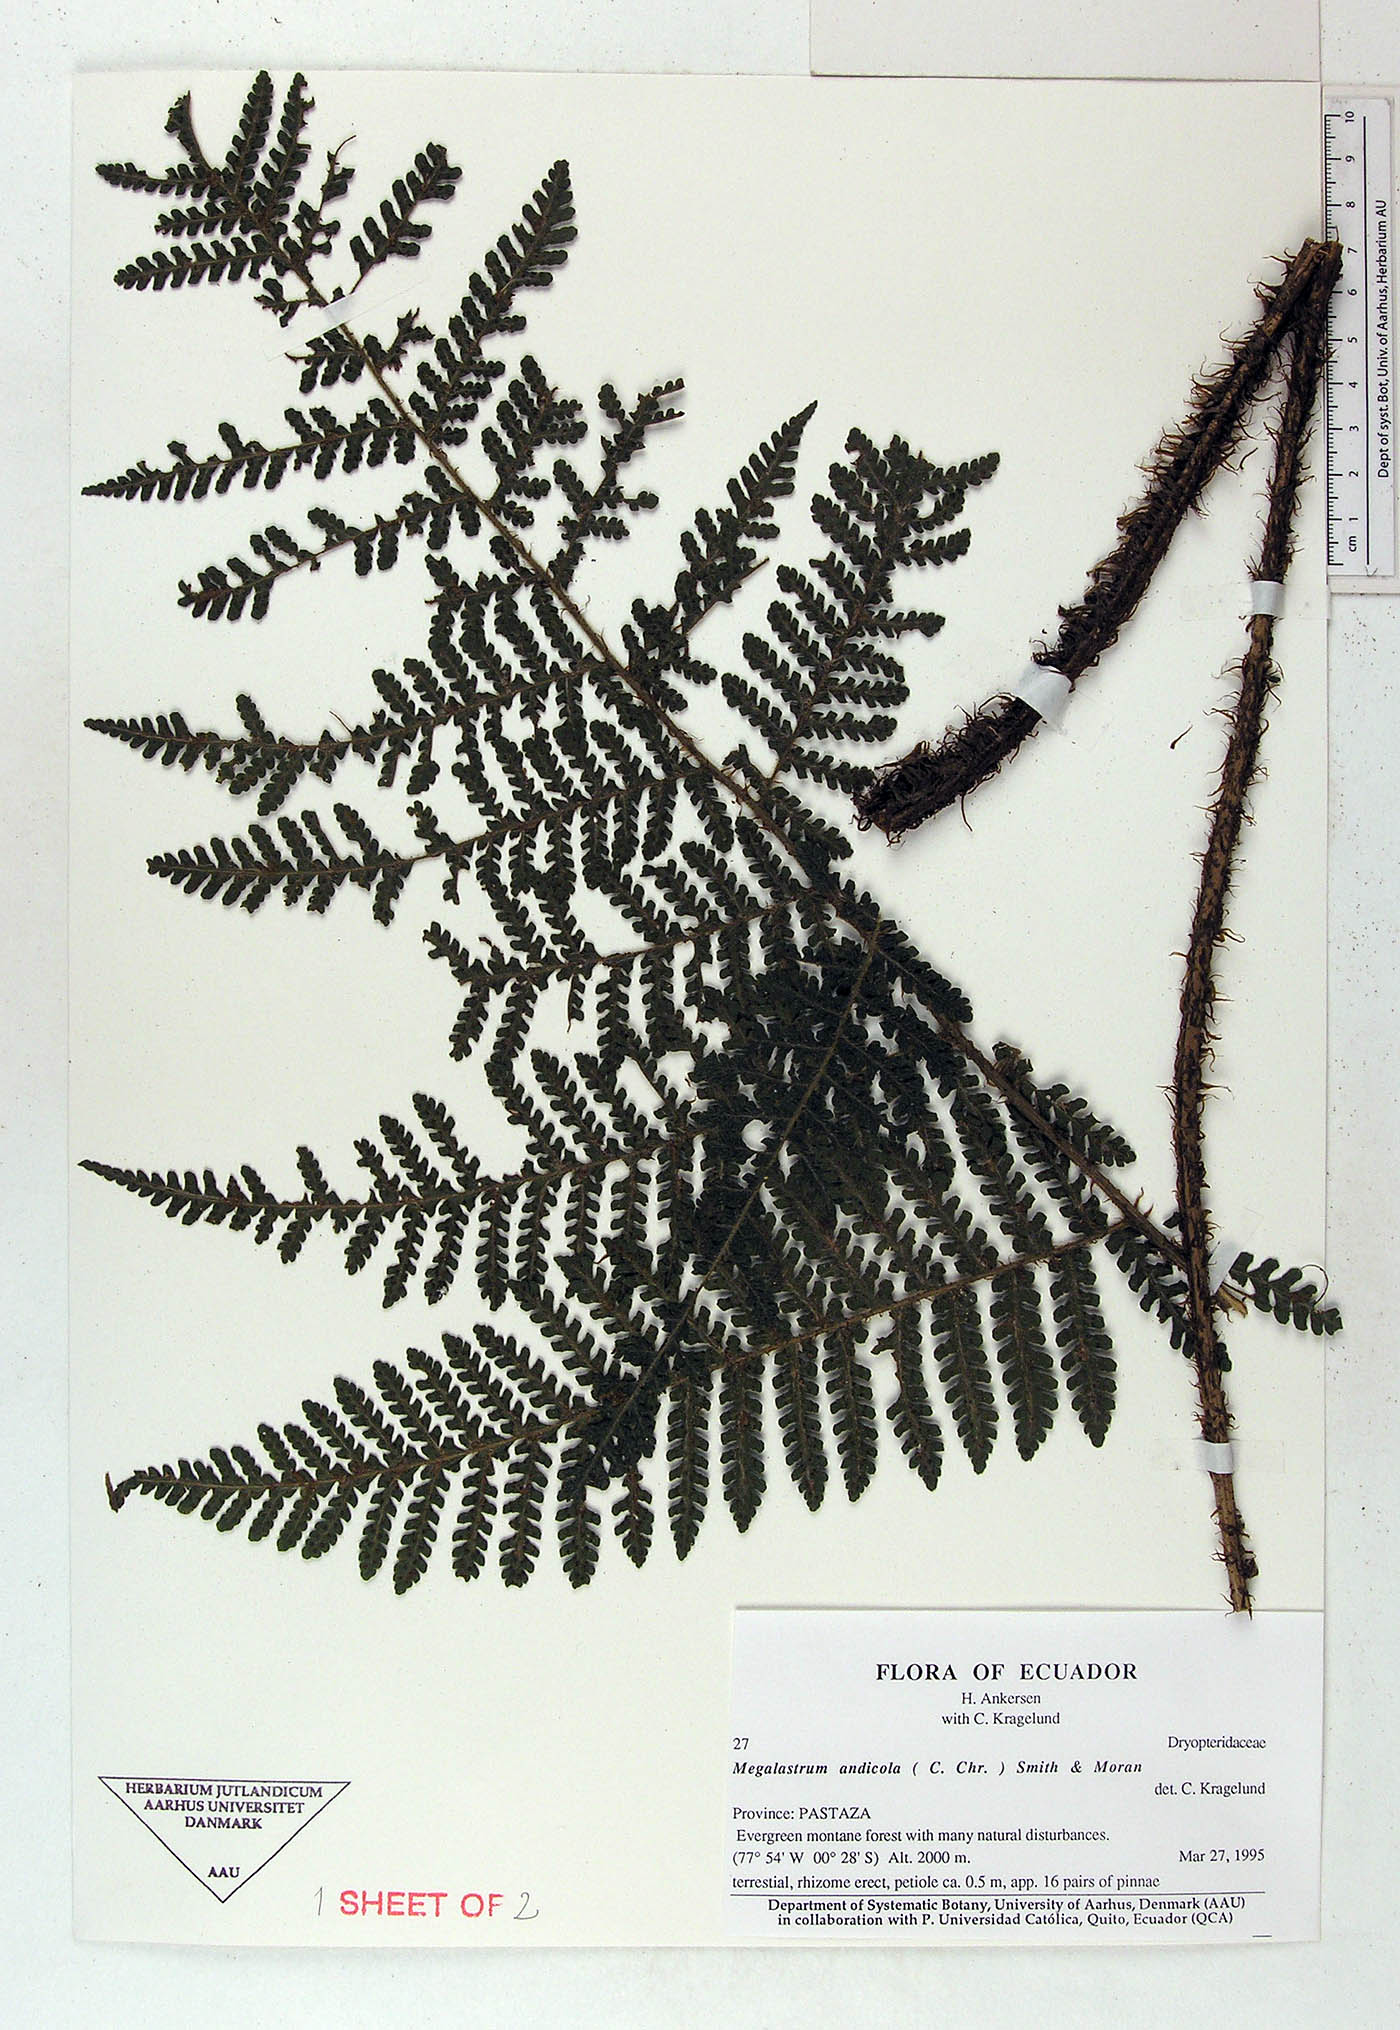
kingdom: Plantae
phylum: Tracheophyta
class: Polypodiopsida
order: Polypodiales
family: Dryopteridaceae
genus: Megalastrum
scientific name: Megalastrum insigne
